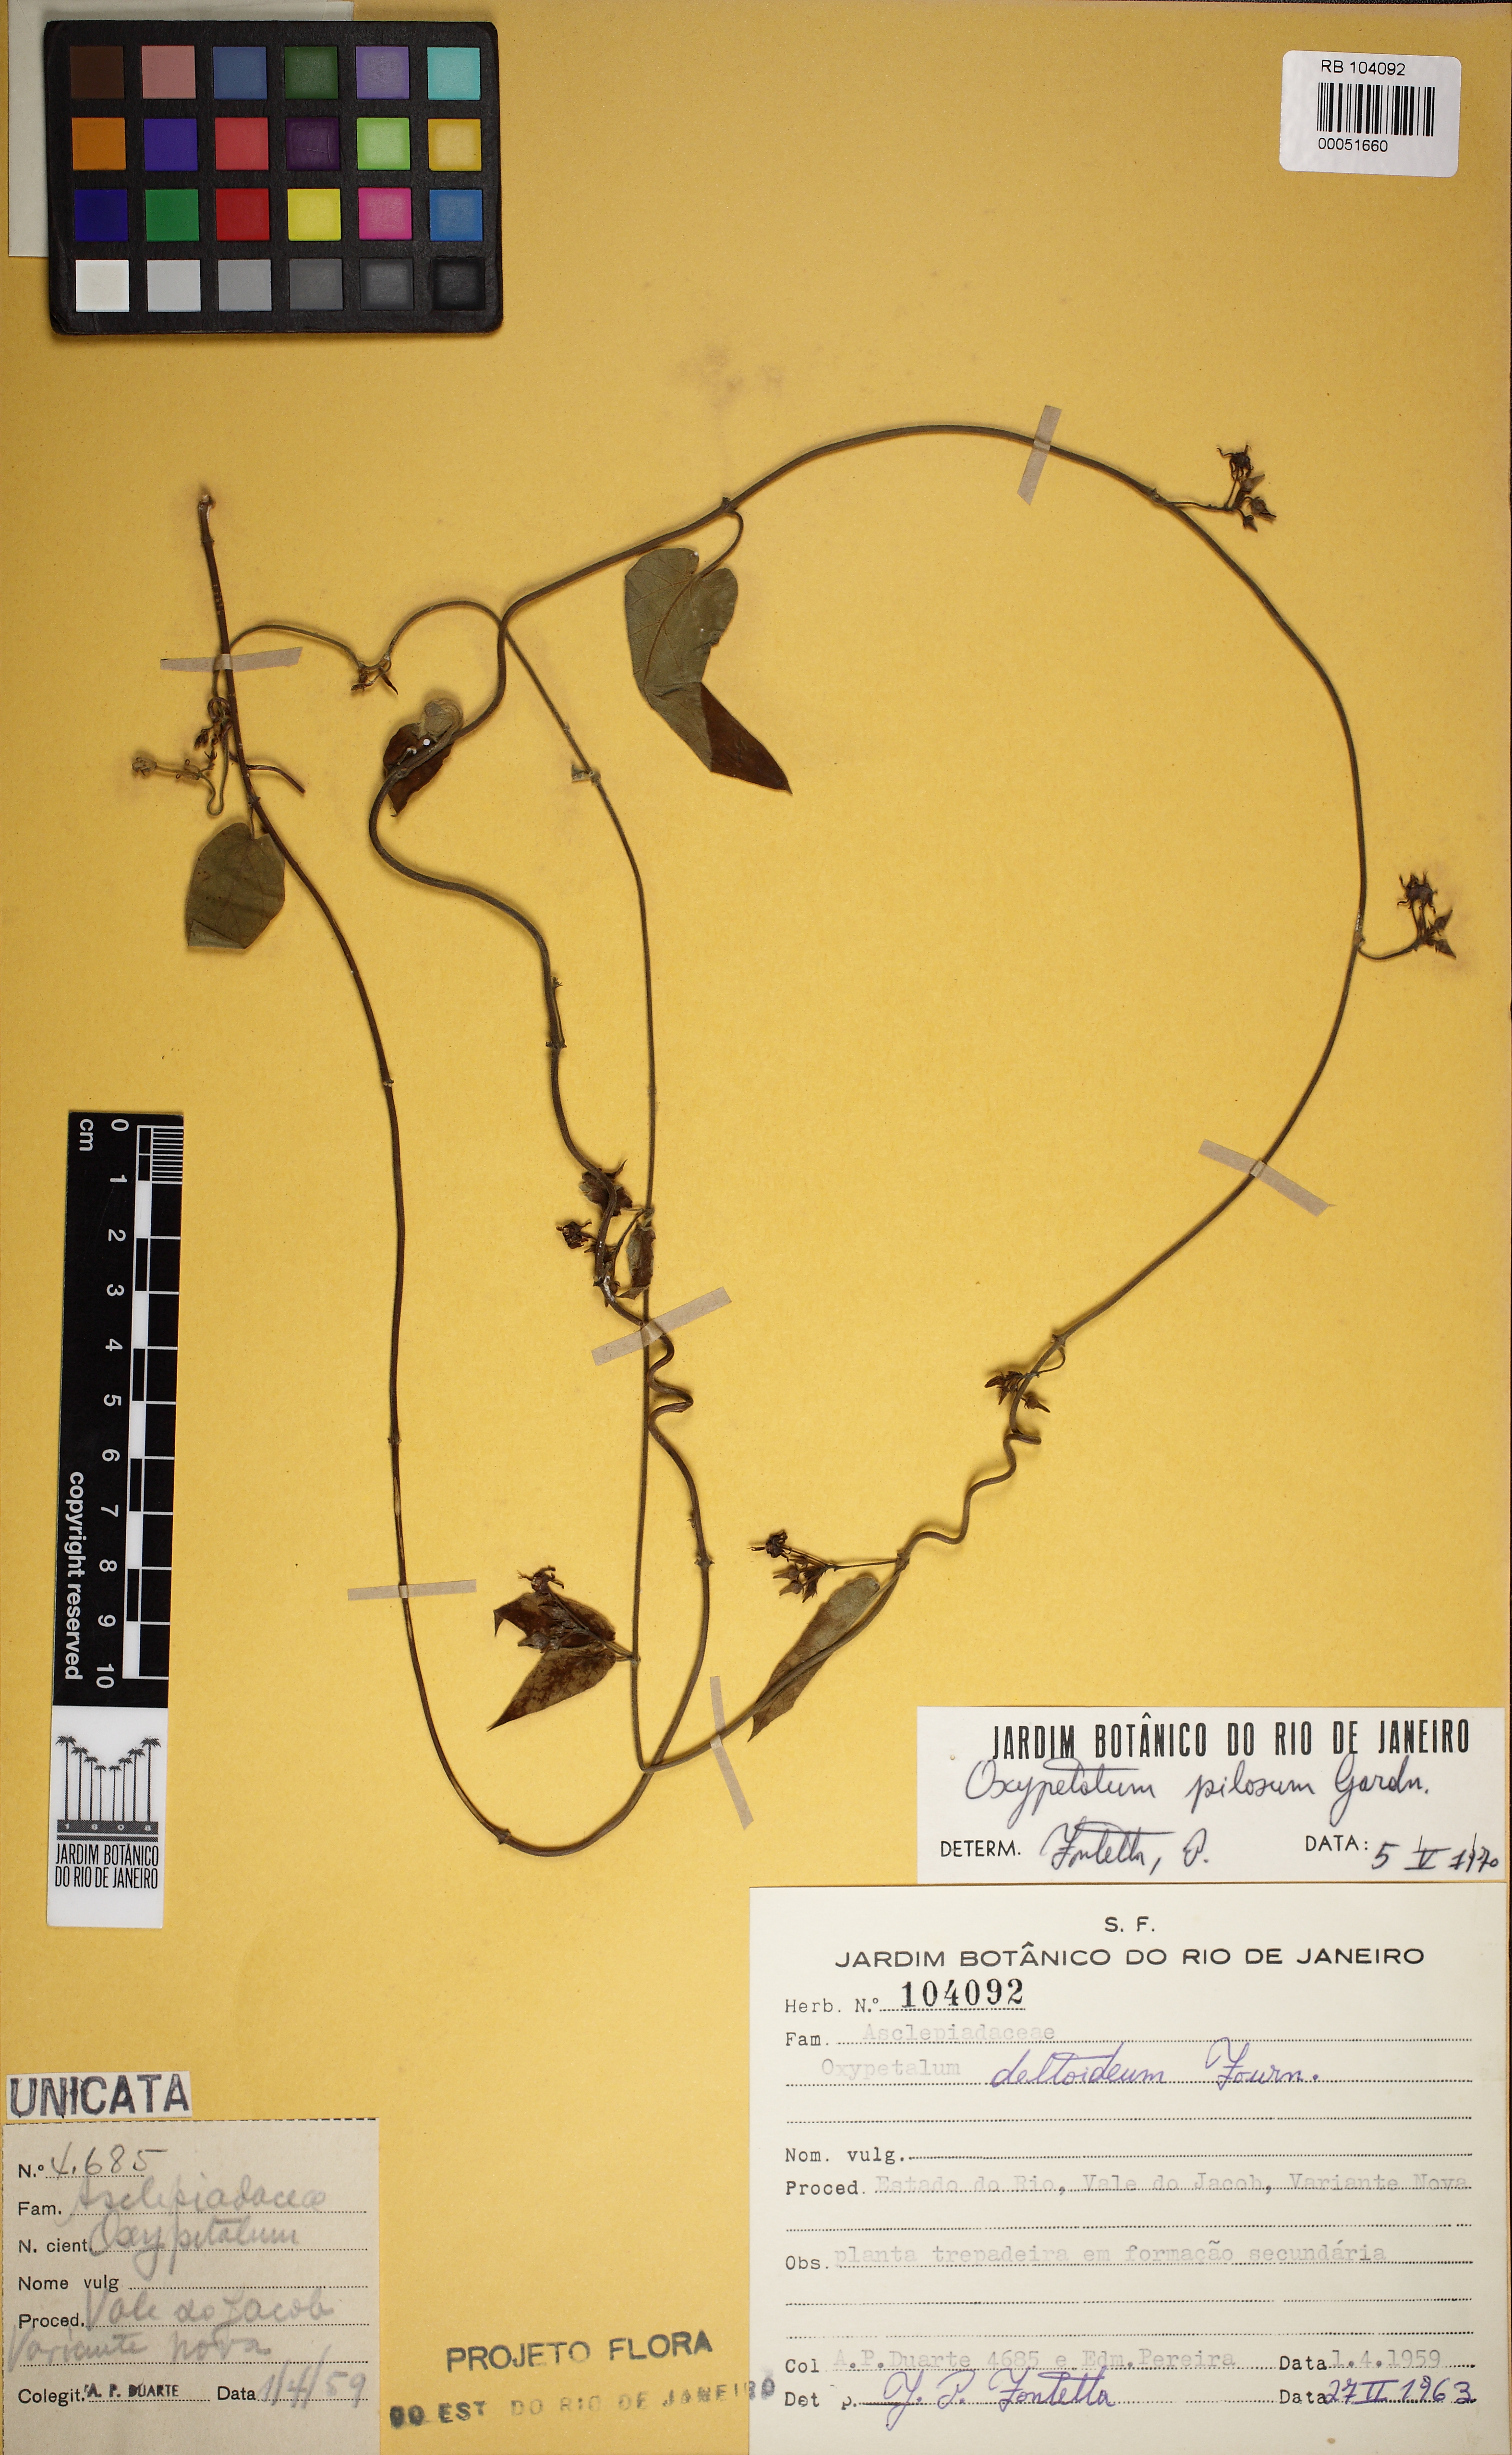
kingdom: Plantae
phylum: Tracheophyta
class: Magnoliopsida
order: Gentianales
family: Apocynaceae
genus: Oxypetalum
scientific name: Oxypetalum pilosum
